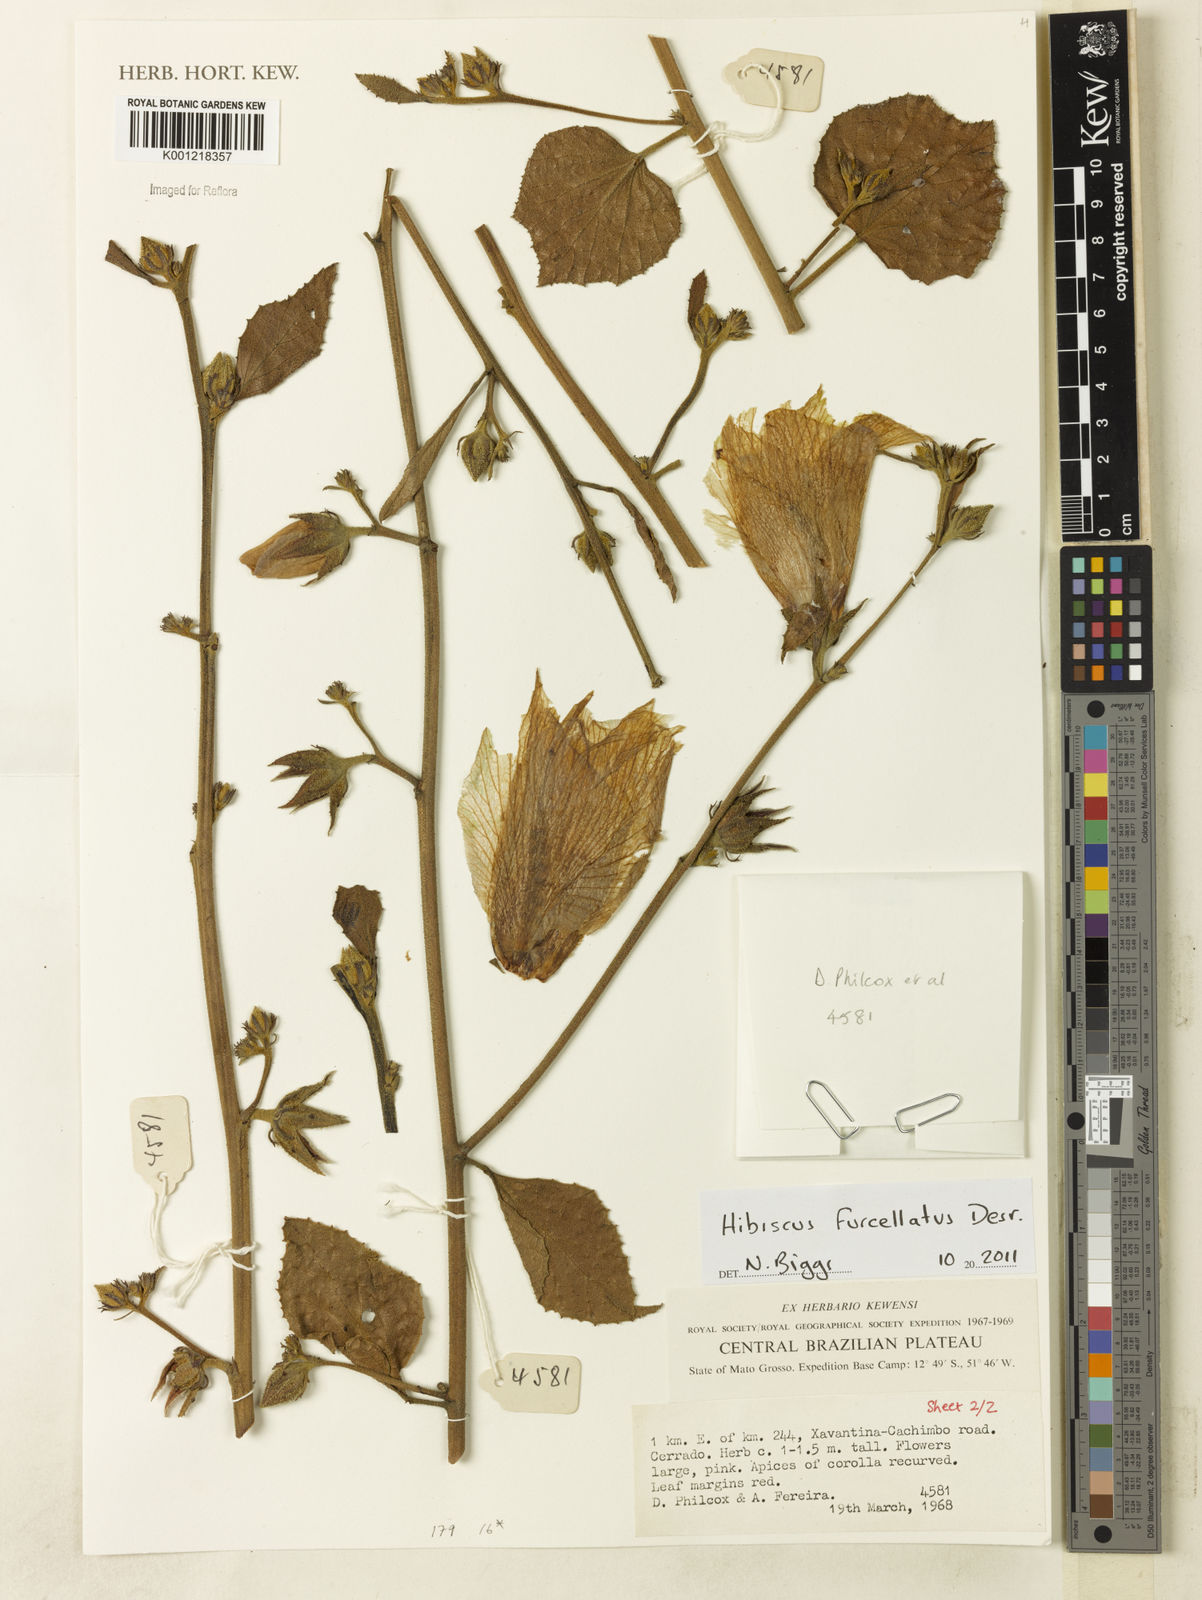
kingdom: Plantae
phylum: Tracheophyta
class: Magnoliopsida
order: Malvales
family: Malvaceae
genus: Hibiscus
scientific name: Hibiscus furcellatus
